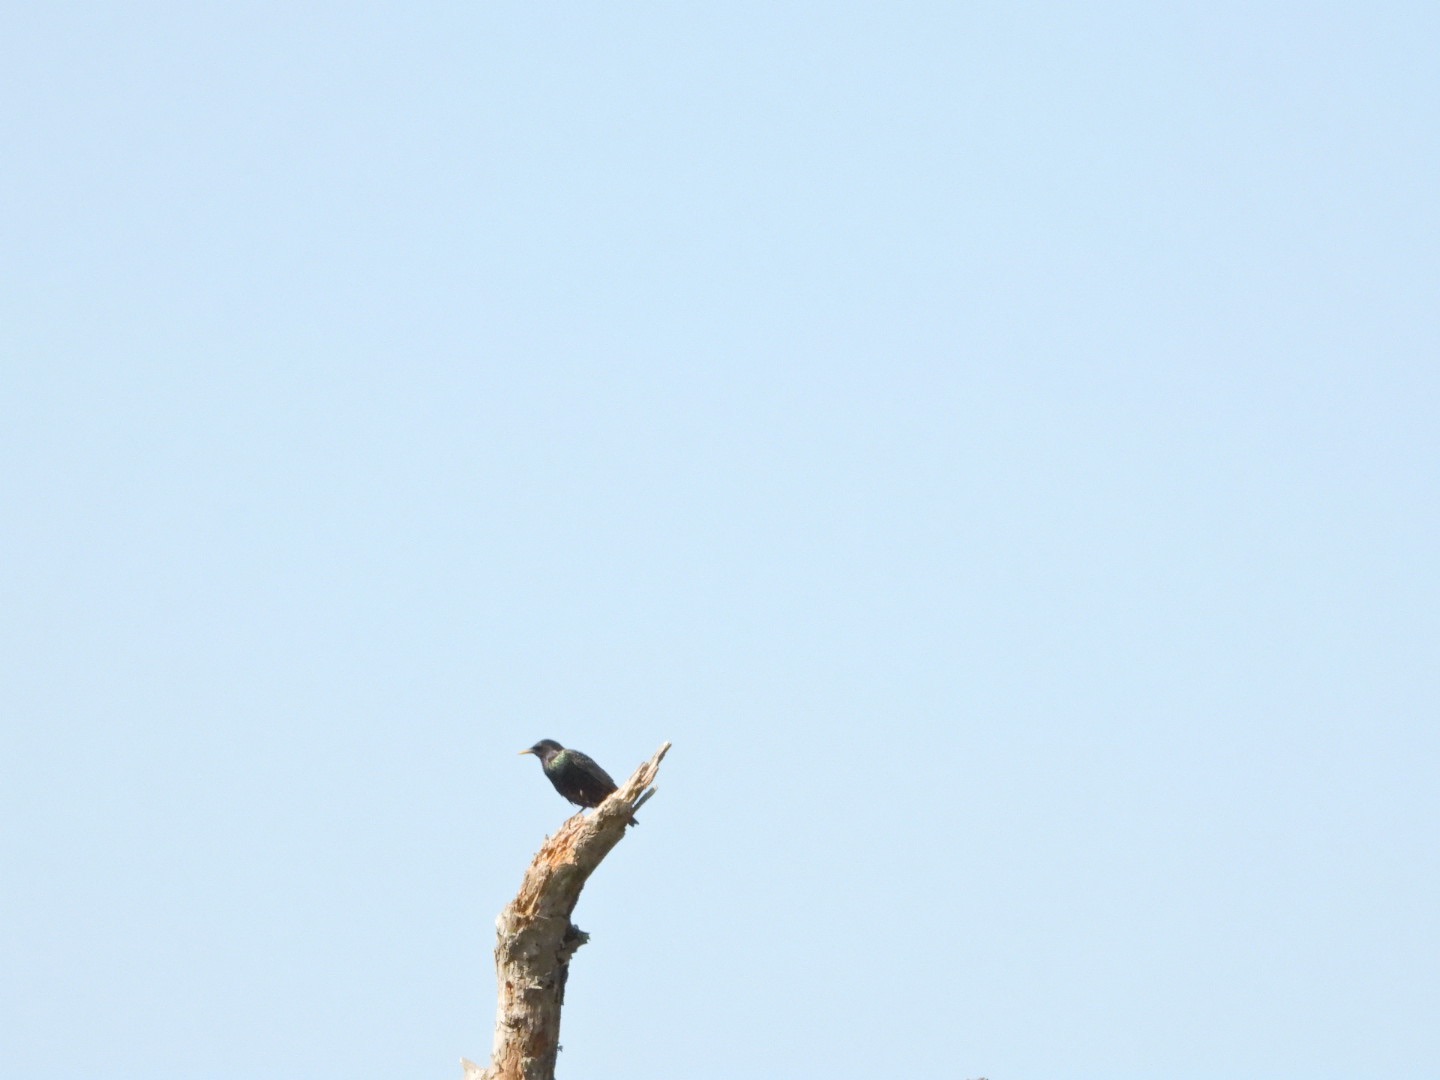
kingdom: Animalia
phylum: Chordata
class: Aves
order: Passeriformes
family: Sturnidae
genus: Sturnus
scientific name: Sturnus vulgaris
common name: Stær
